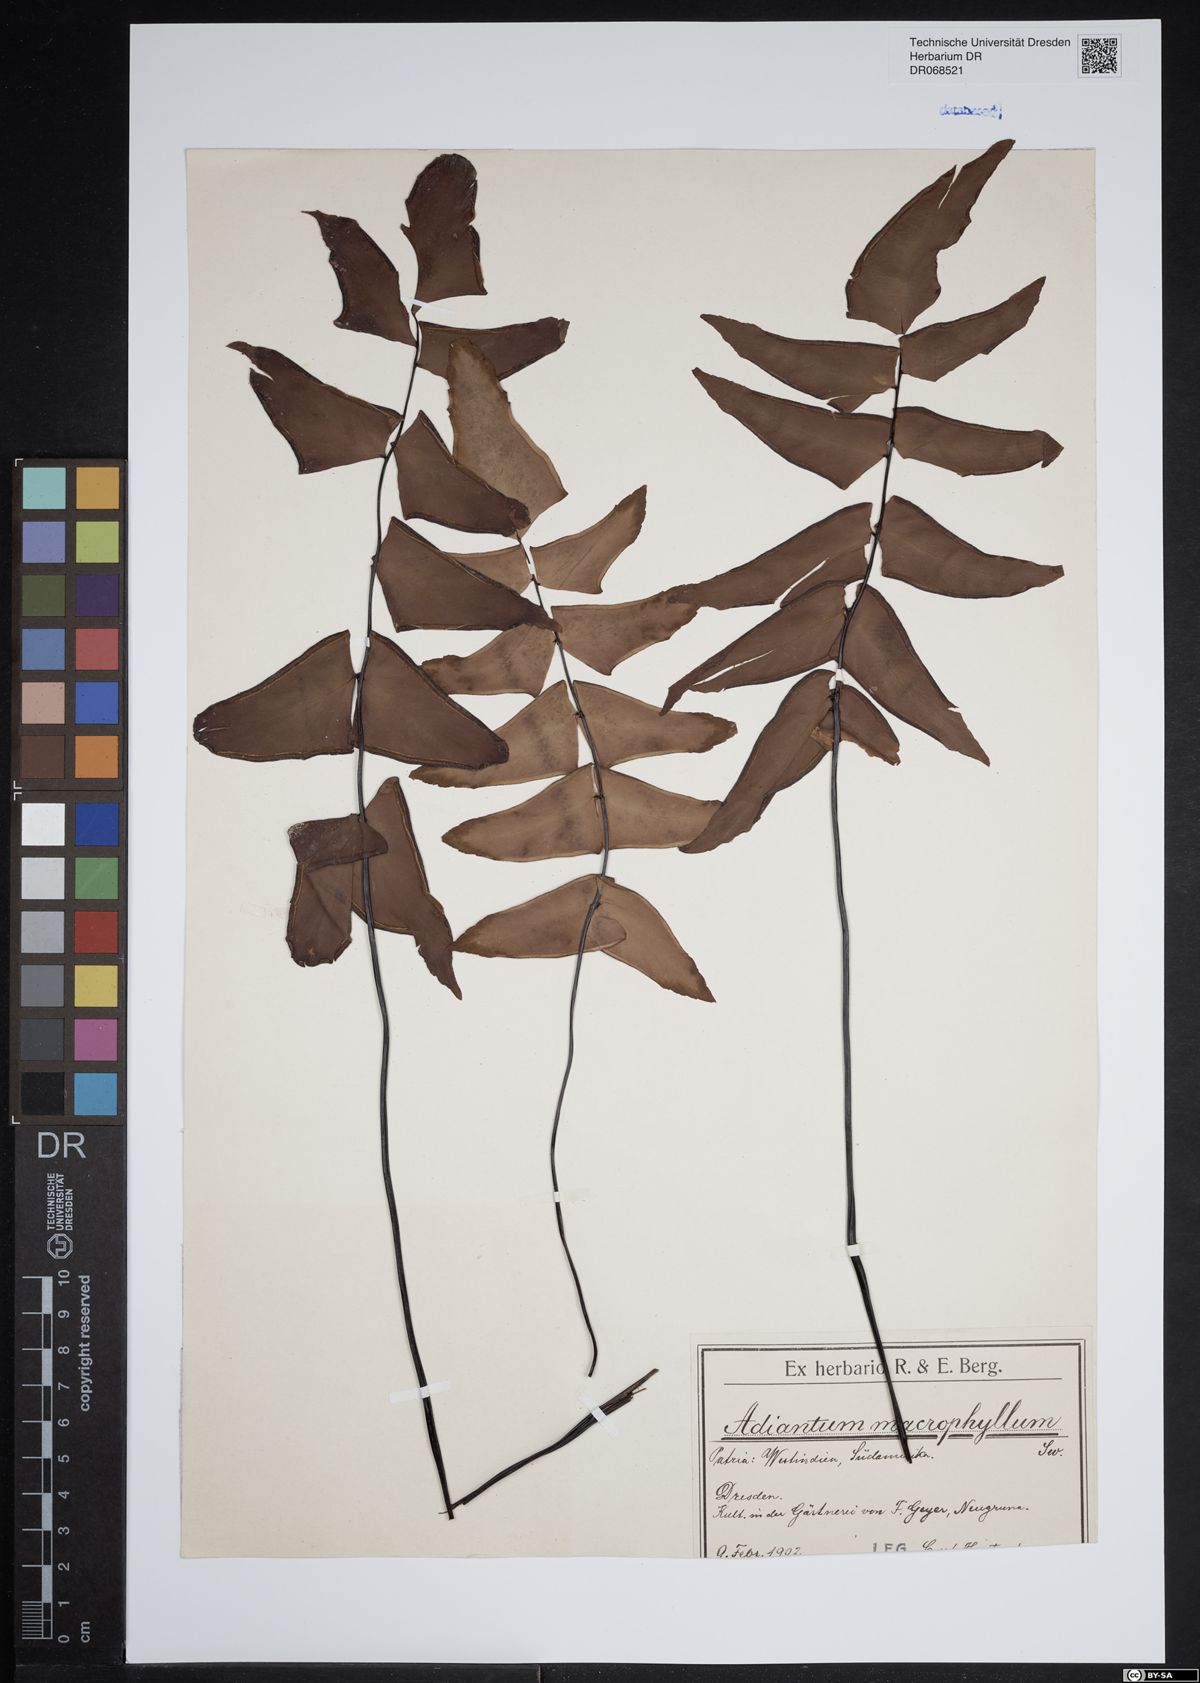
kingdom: Plantae
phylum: Tracheophyta
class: Polypodiopsida
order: Polypodiales
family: Pteridaceae
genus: Adiantum
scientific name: Adiantum macrophyllum
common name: Largeleaf maidenhair
